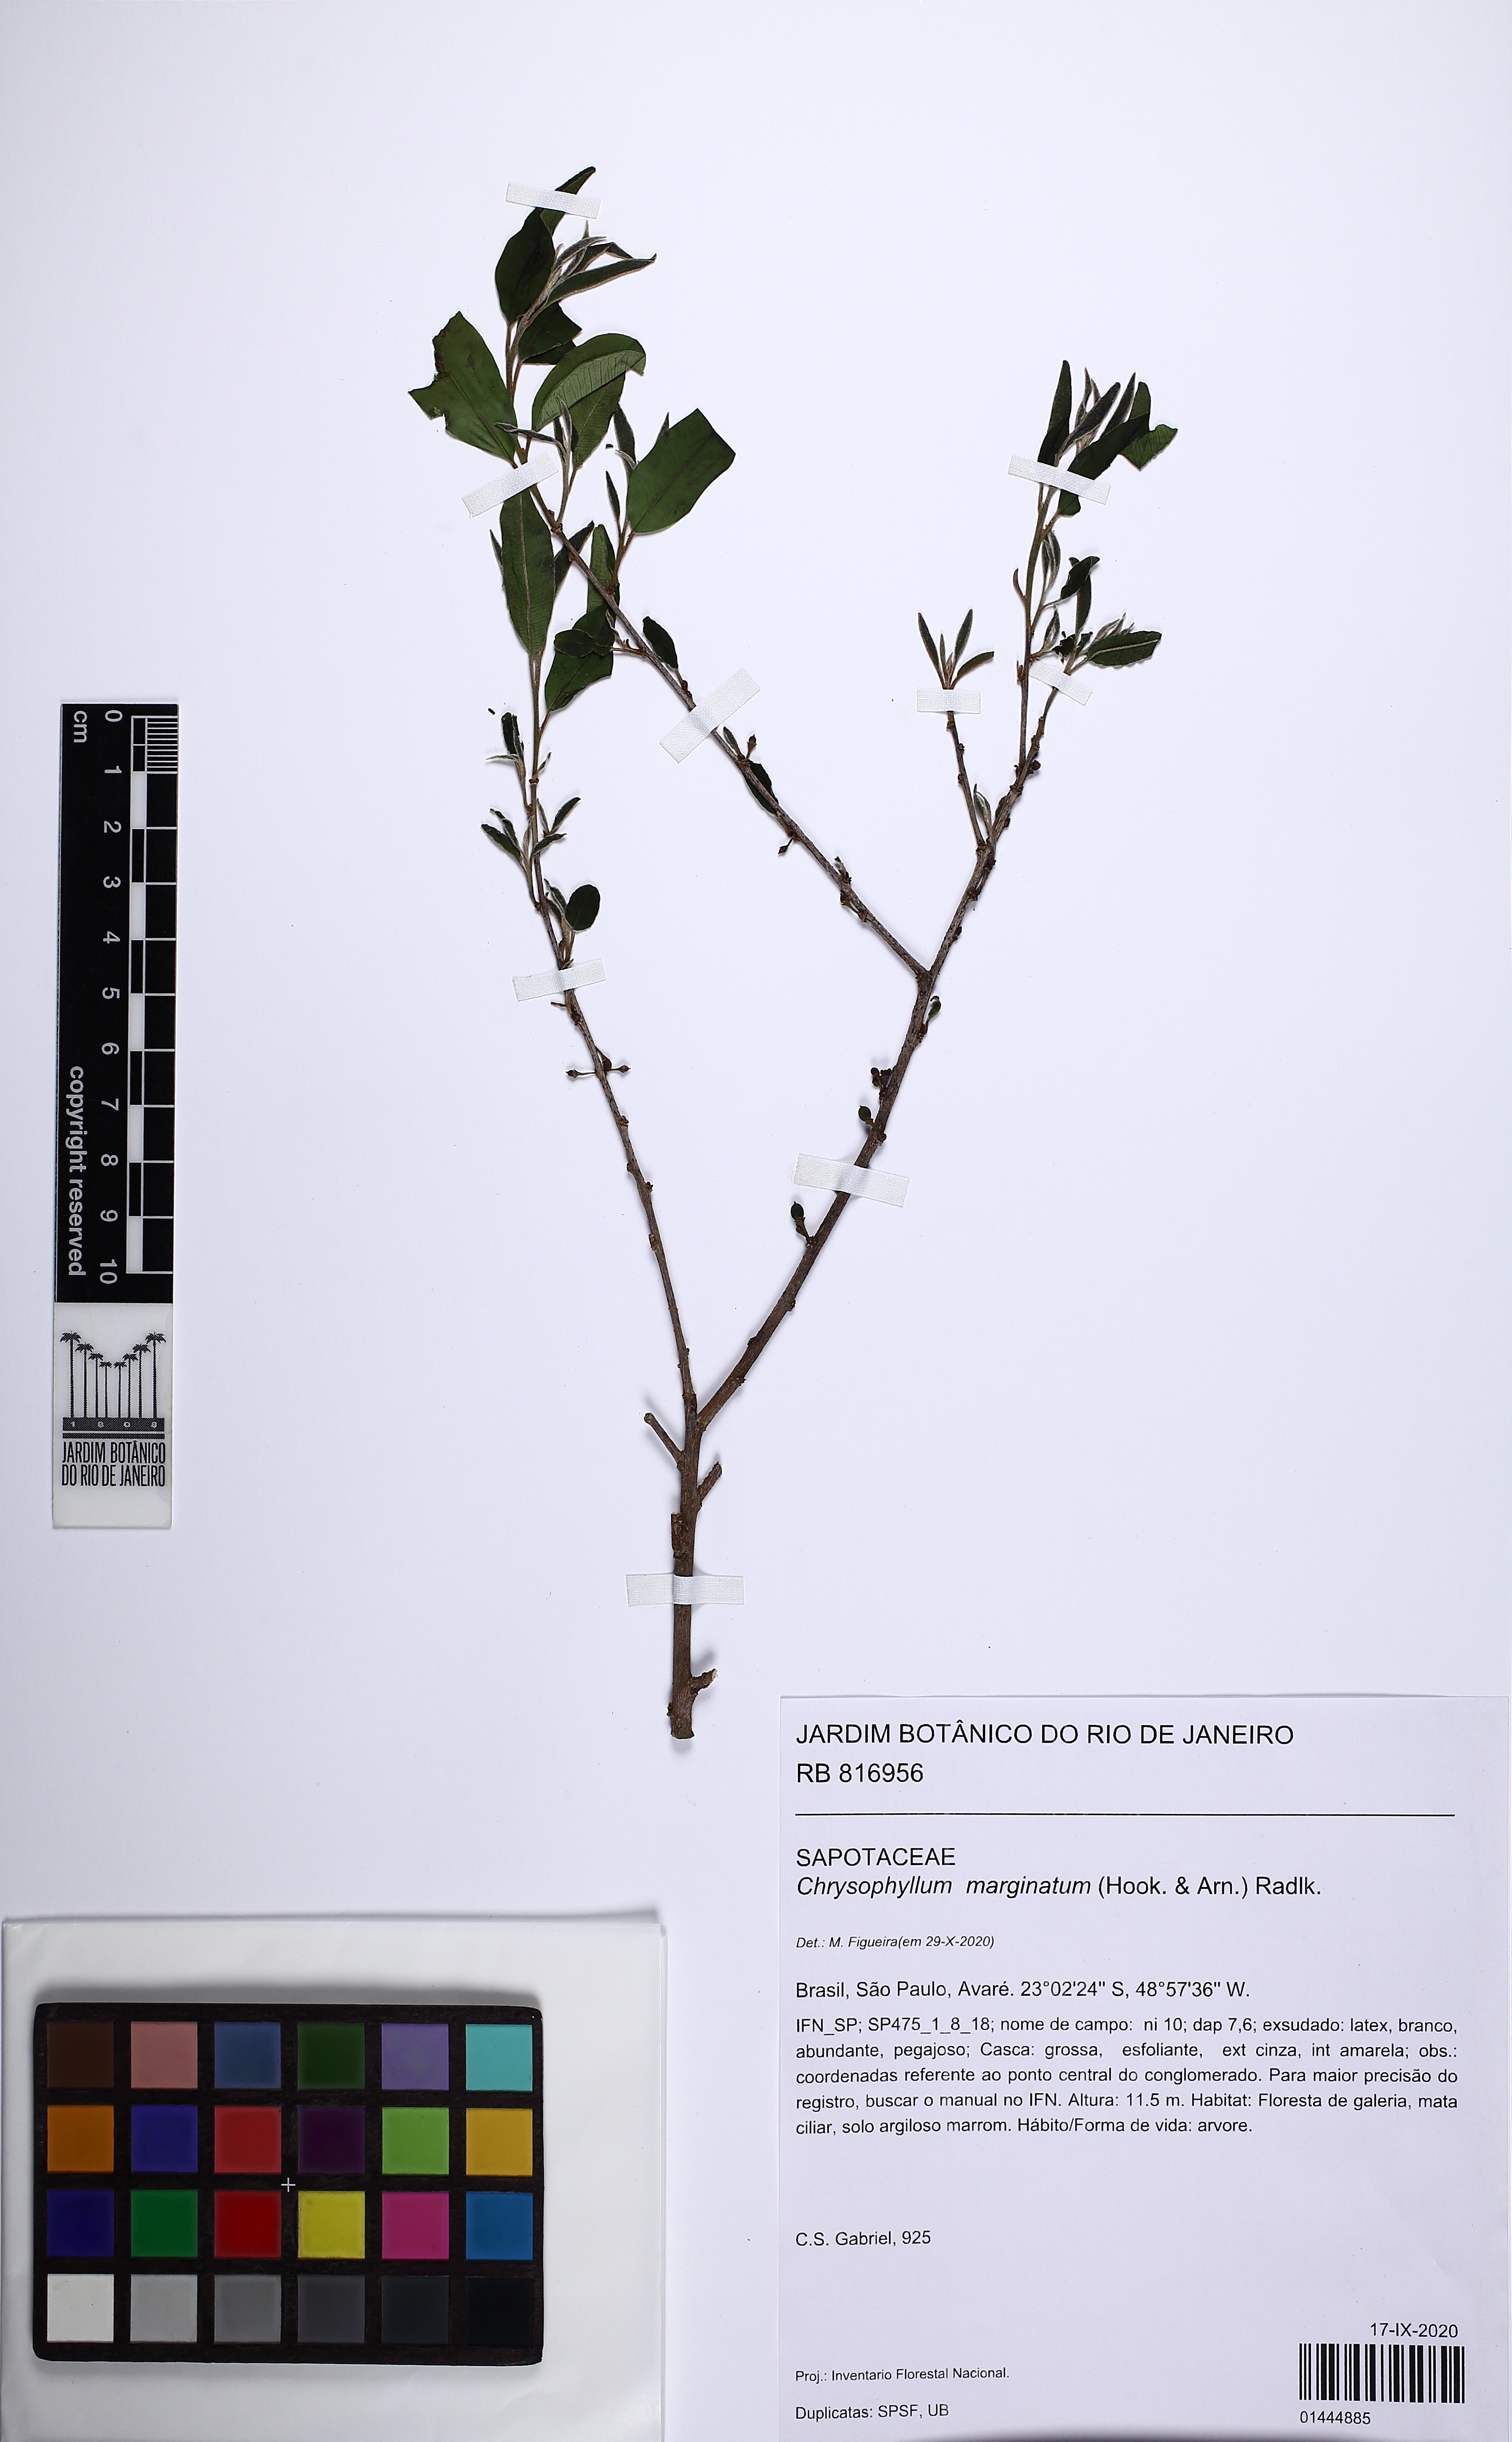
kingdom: Plantae
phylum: Tracheophyta
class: Magnoliopsida
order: Ericales
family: Sapotaceae
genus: Chrysophyllum
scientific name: Chrysophyllum marginatum
